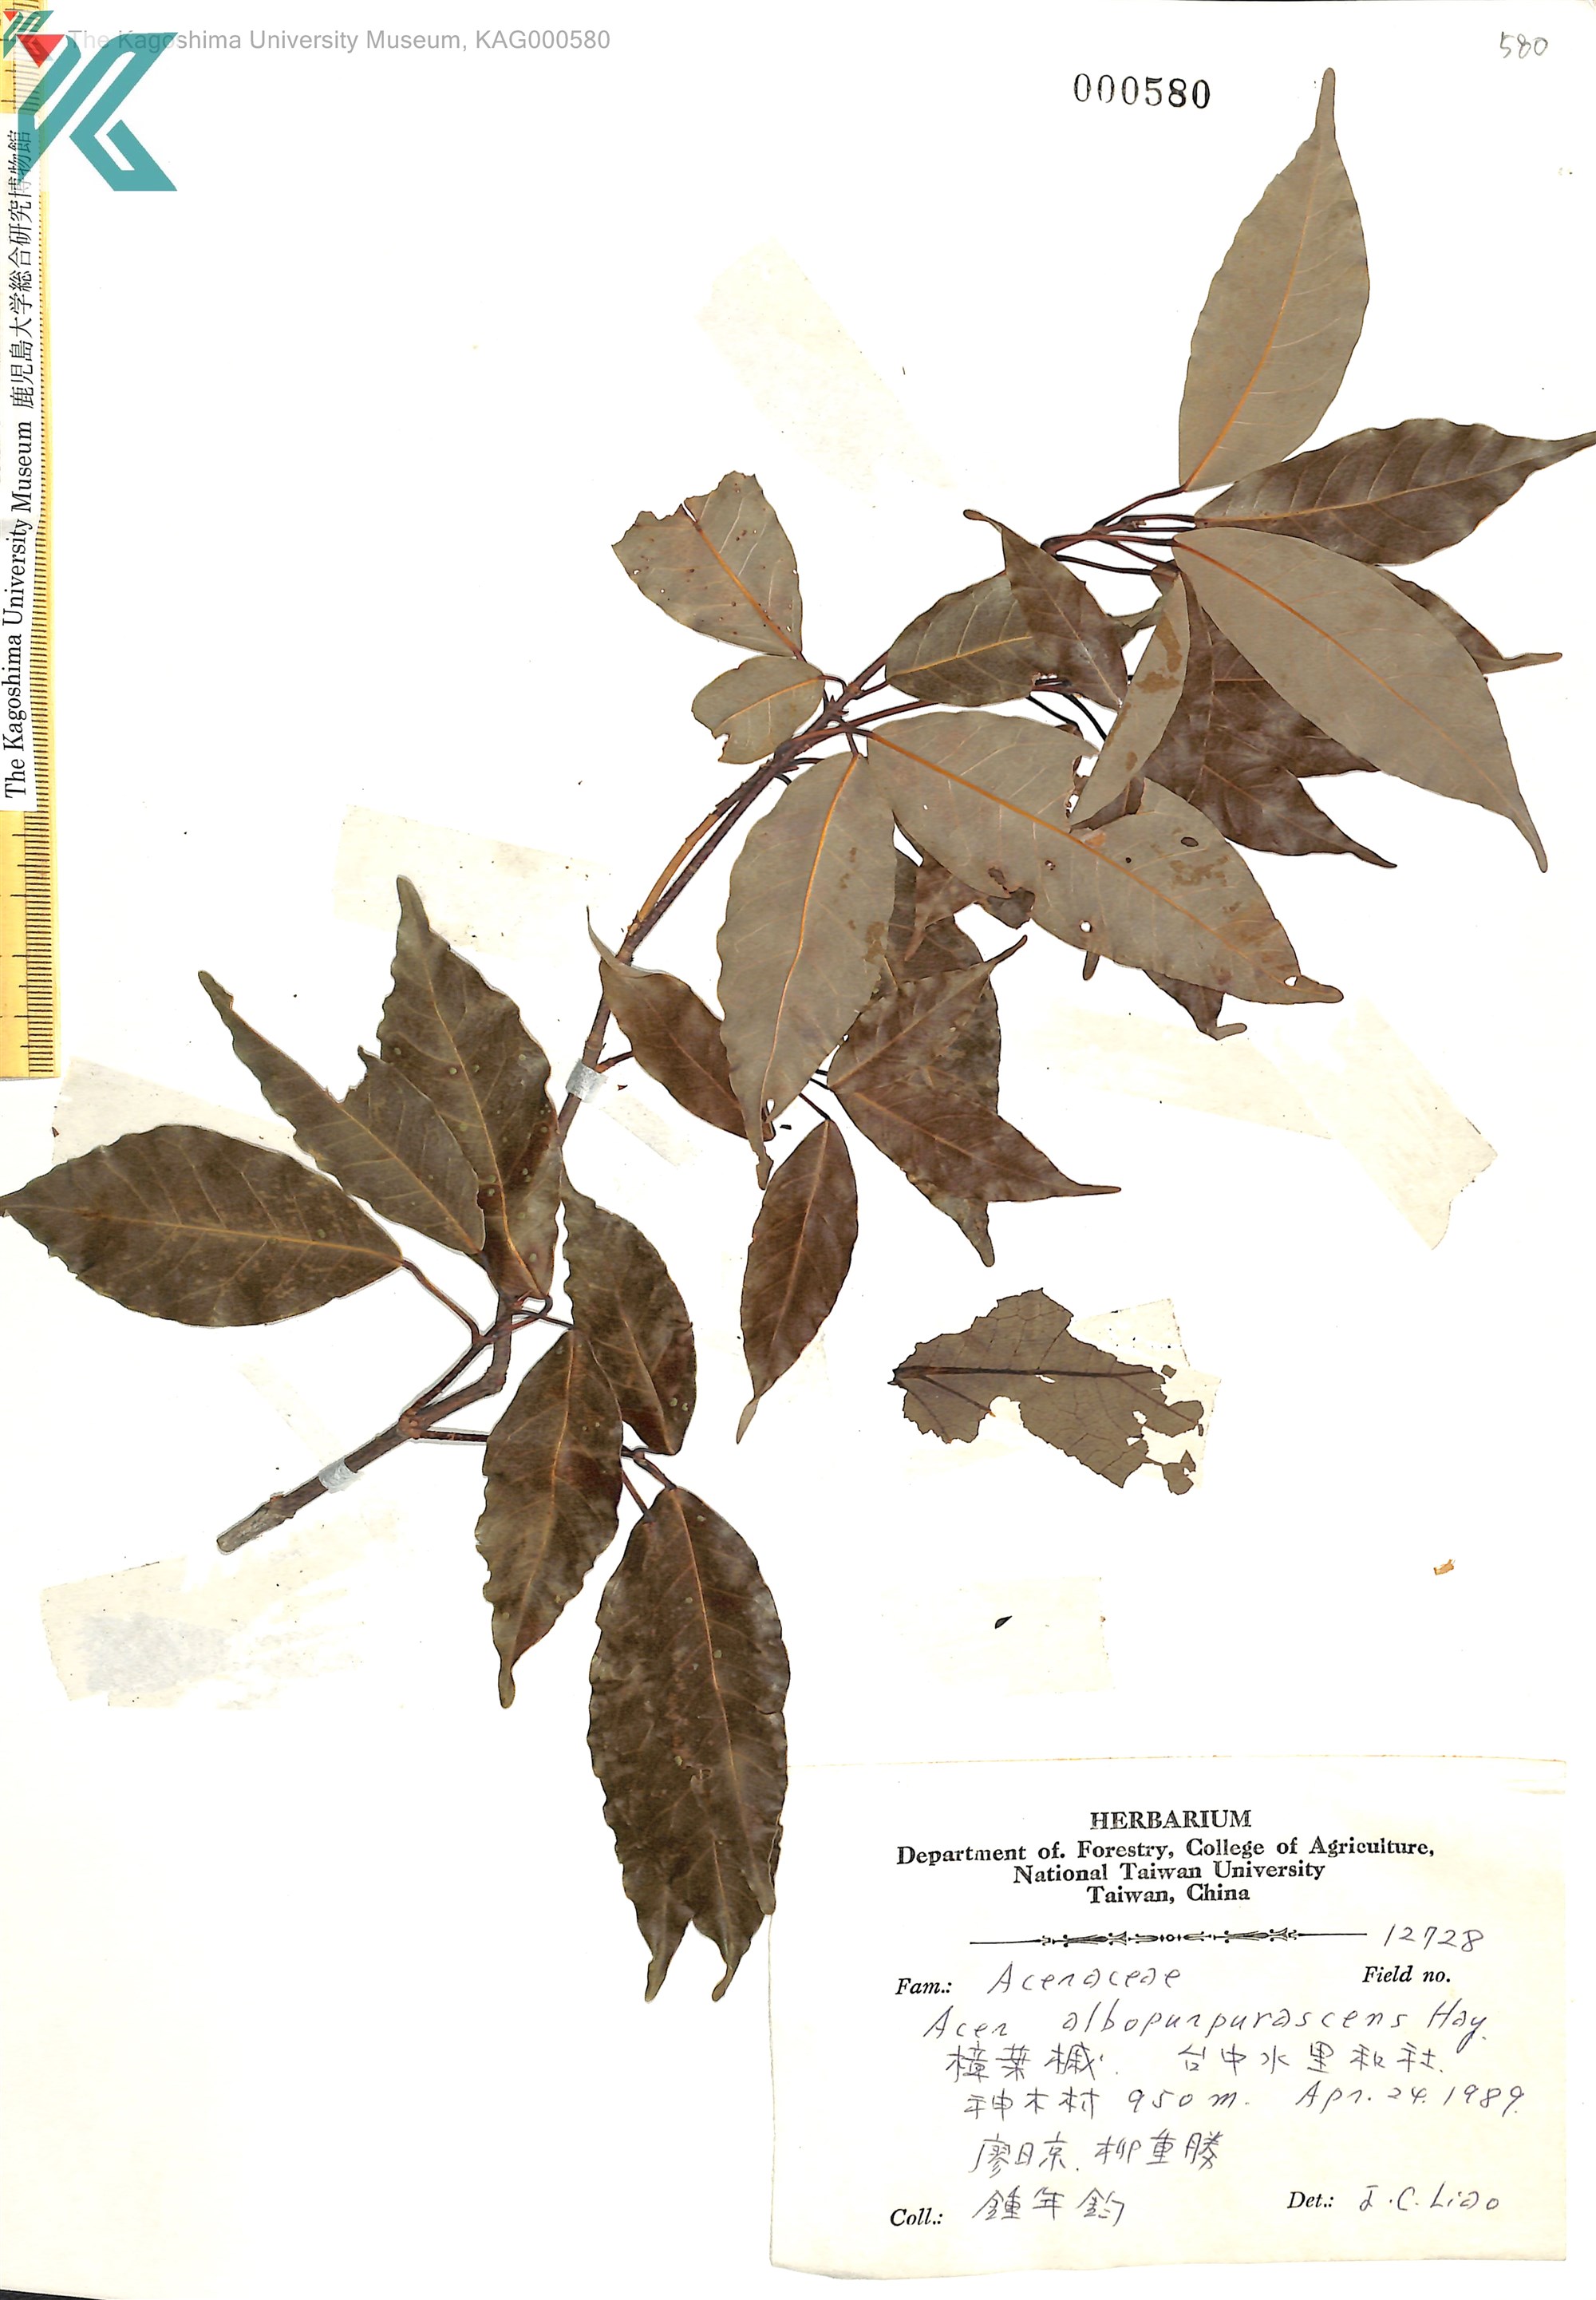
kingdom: Plantae
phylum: Tracheophyta
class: Magnoliopsida
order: Sapindales
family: Sapindaceae
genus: Acer
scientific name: Acer oblongum
